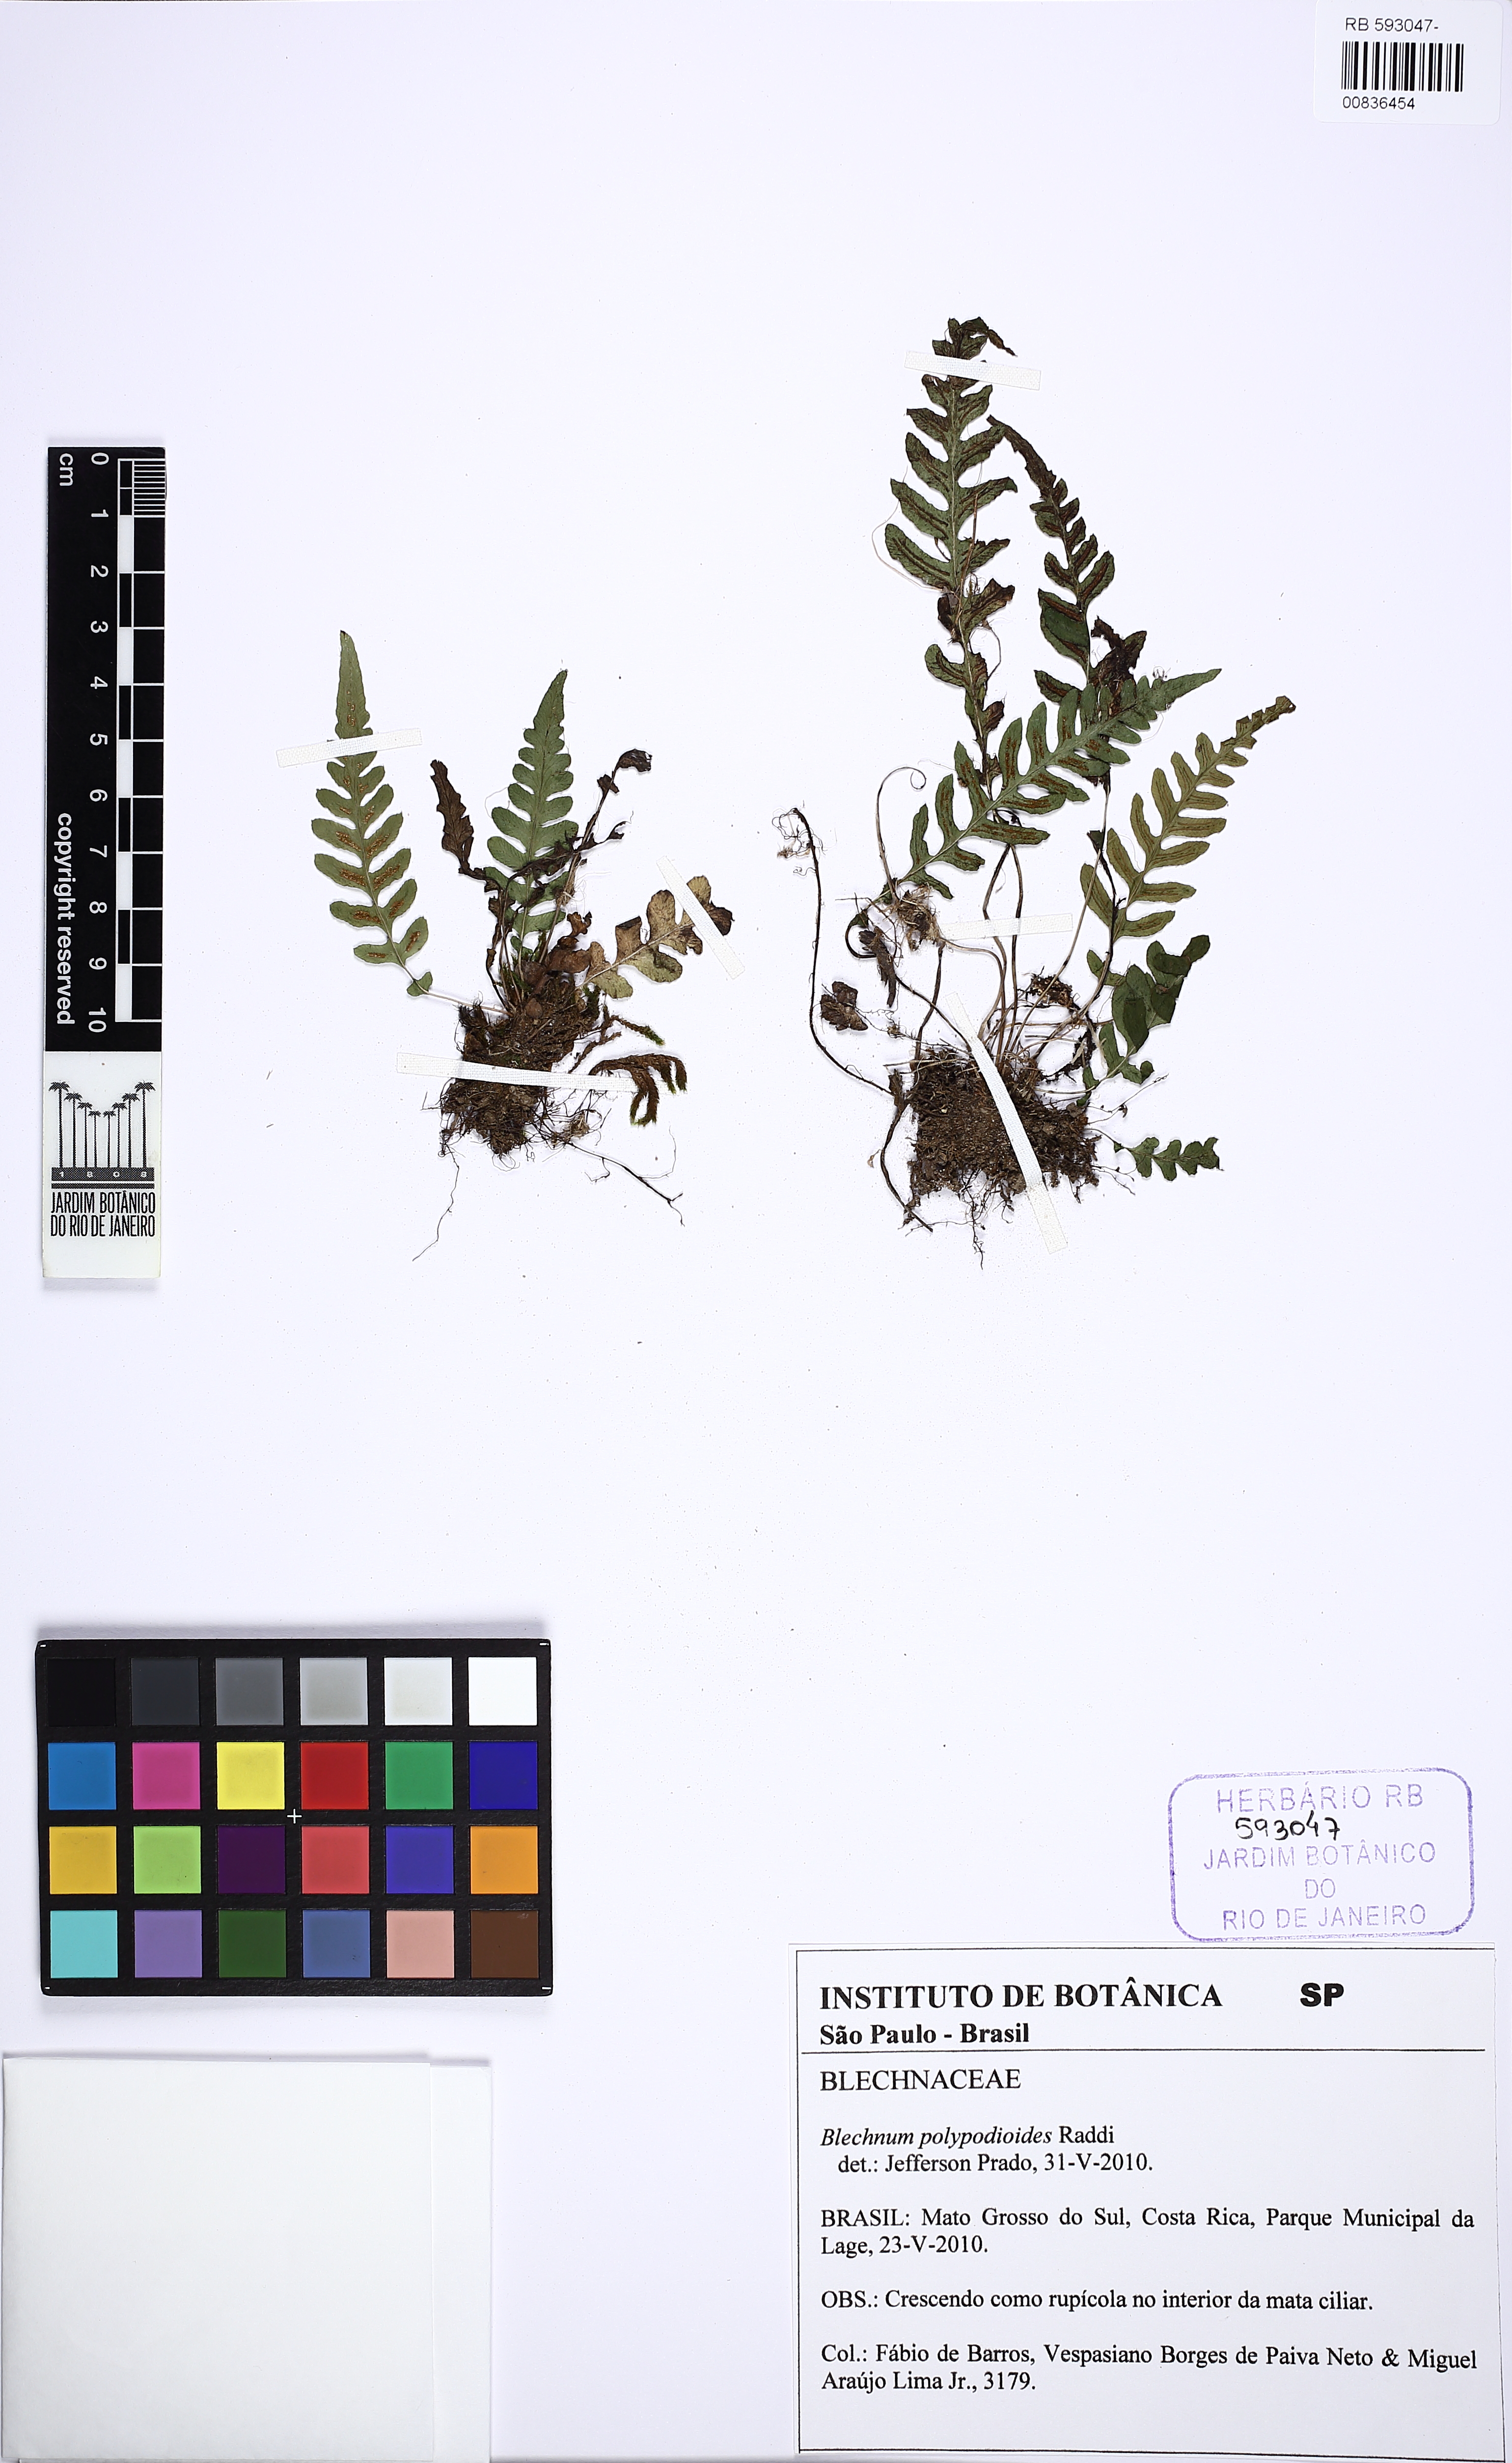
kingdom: Plantae
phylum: Tracheophyta
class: Polypodiopsida
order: Polypodiales
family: Blechnaceae
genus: Blechnum
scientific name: Blechnum polypodioides
